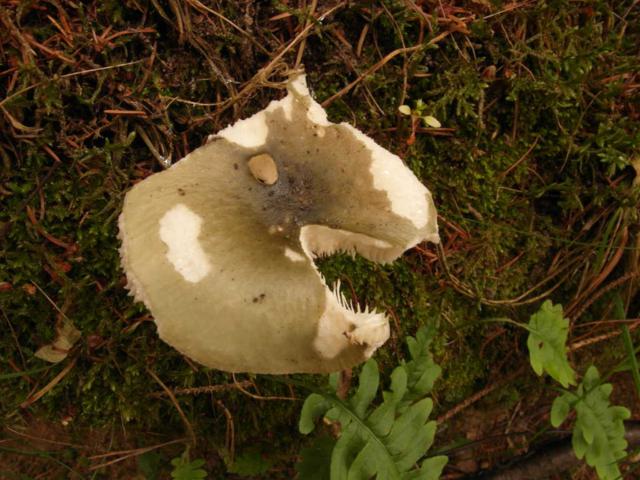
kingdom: Fungi
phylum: Basidiomycota
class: Agaricomycetes
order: Russulales
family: Russulaceae
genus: Russula
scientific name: Russula aeruginea
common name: græsgrøn skørhat
